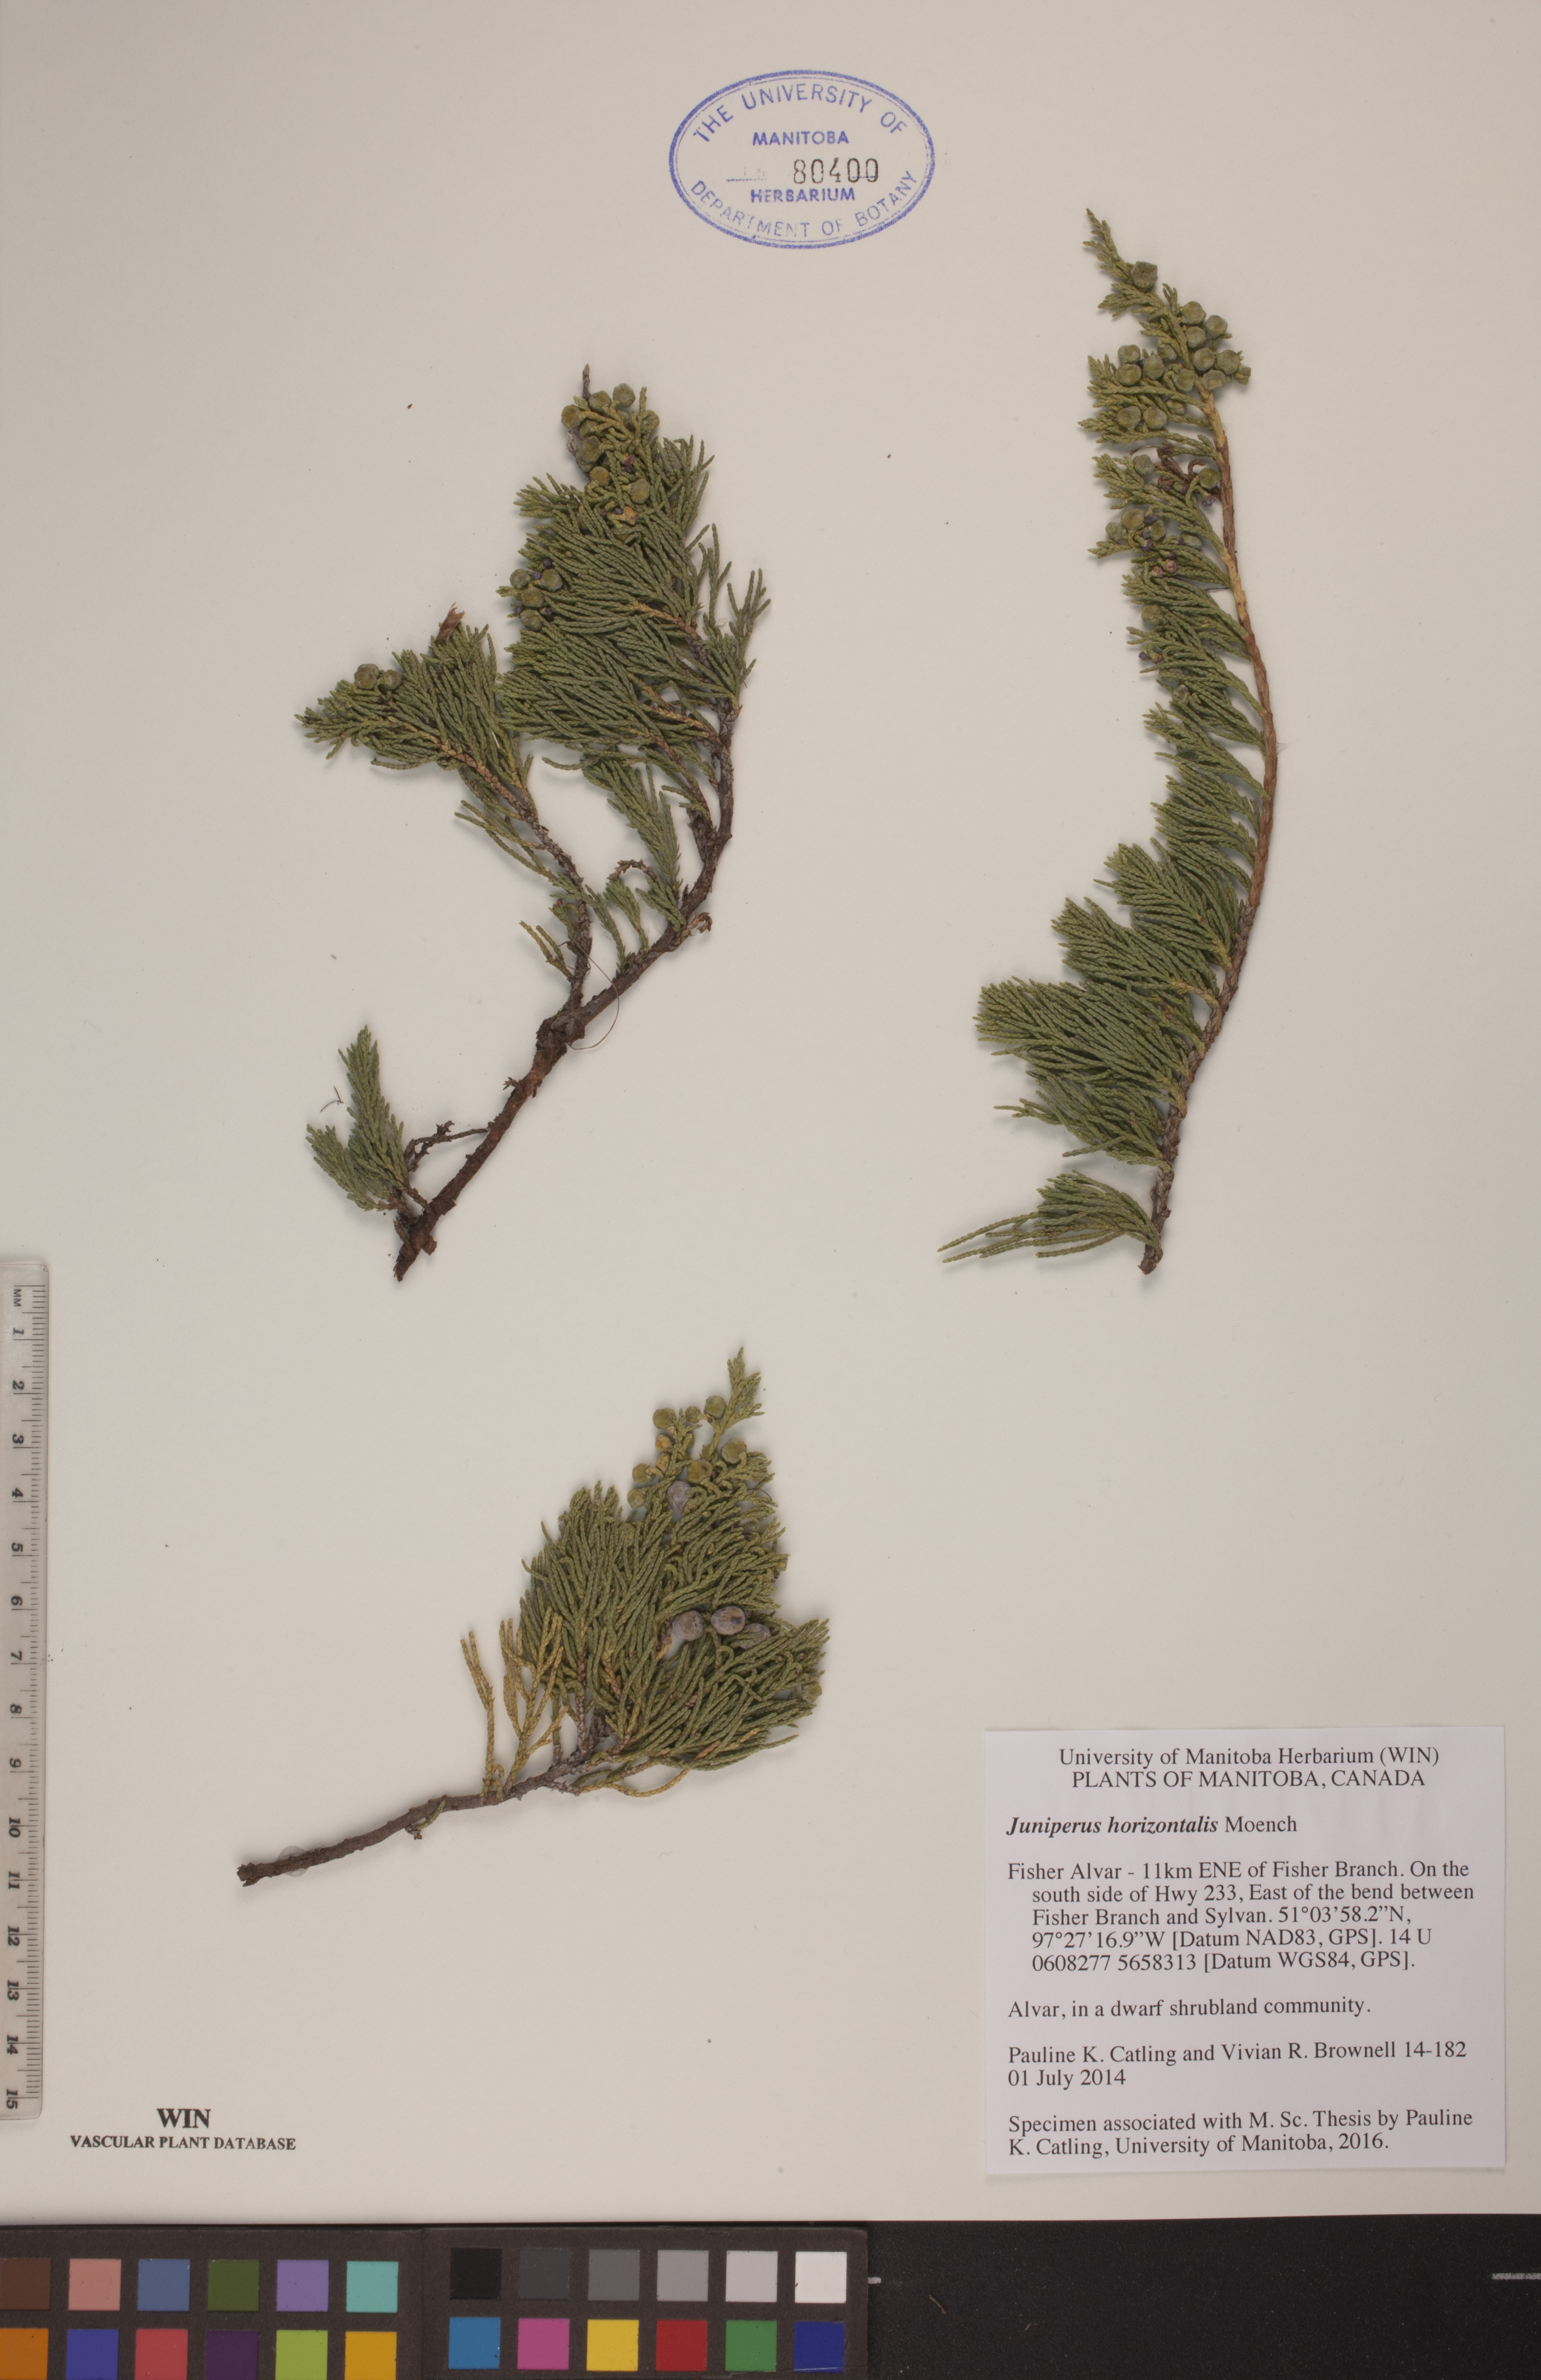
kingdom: Plantae
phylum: Tracheophyta
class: Pinopsida
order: Pinales
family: Cupressaceae
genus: Juniperus
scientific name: Juniperus horizontalis
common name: Creeping juniper
